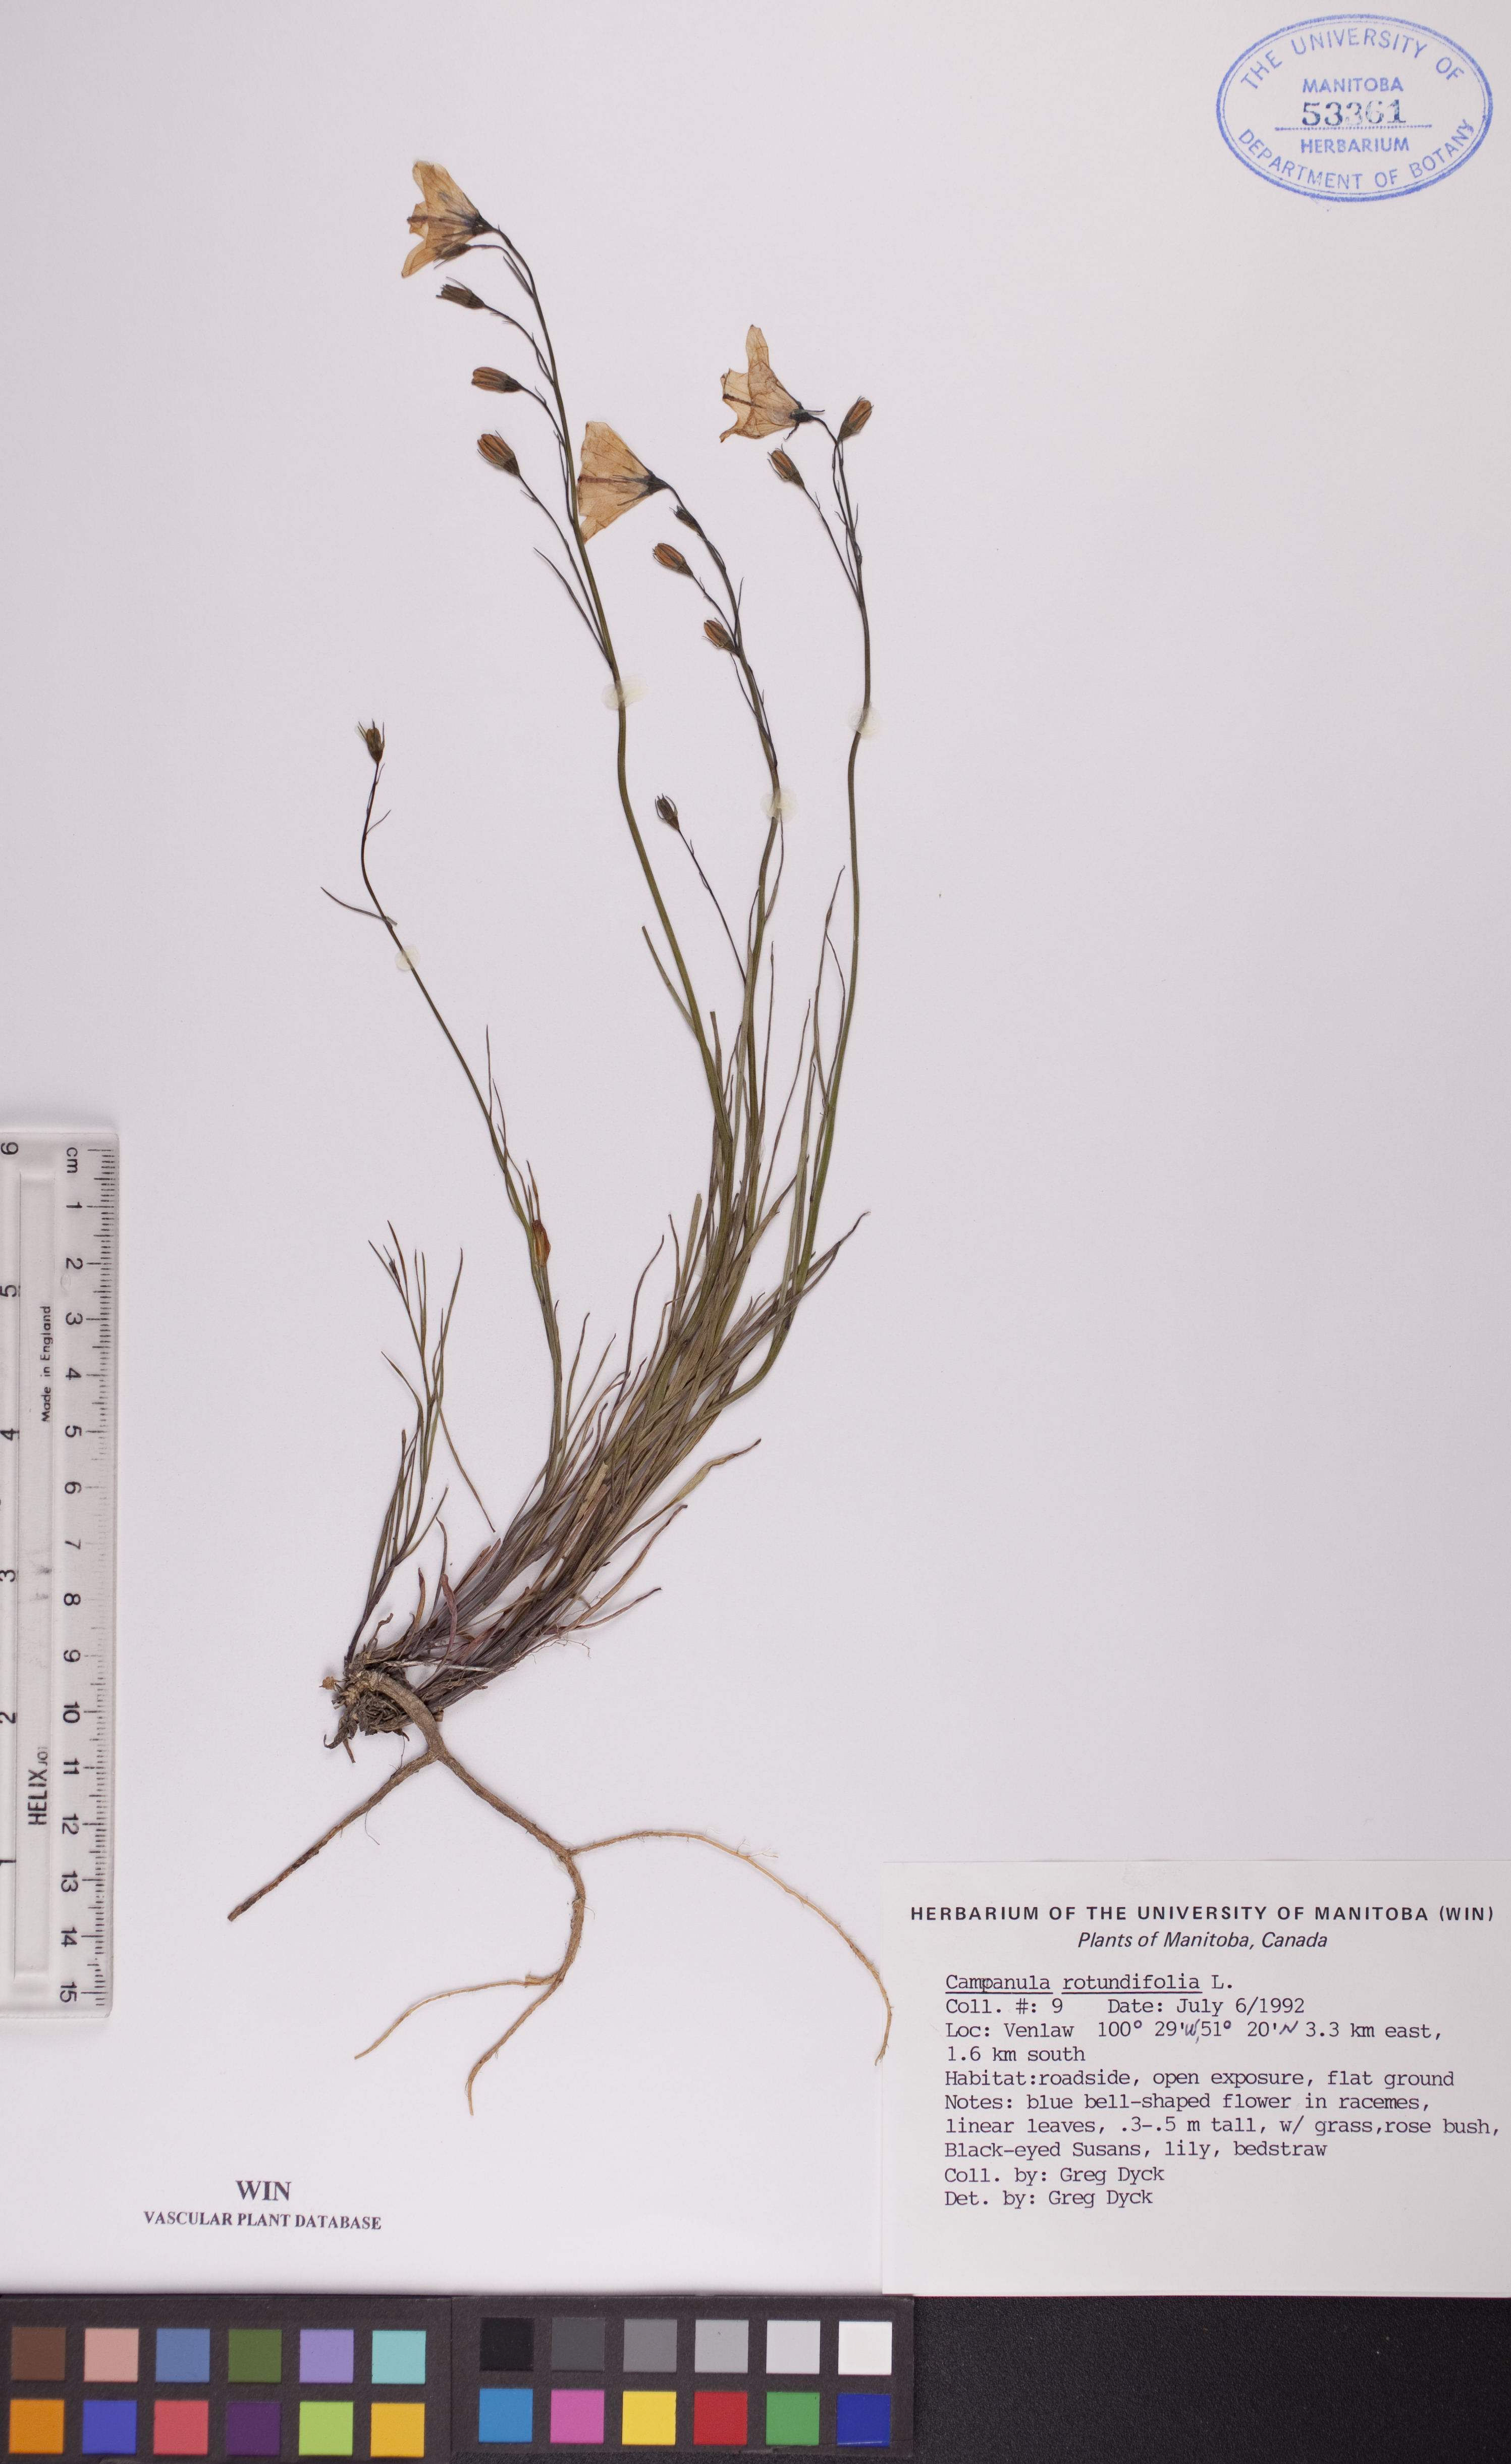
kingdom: Plantae
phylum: Tracheophyta
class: Magnoliopsida
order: Asterales
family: Campanulaceae
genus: Campanula
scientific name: Campanula rotundifolia
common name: Harebell
